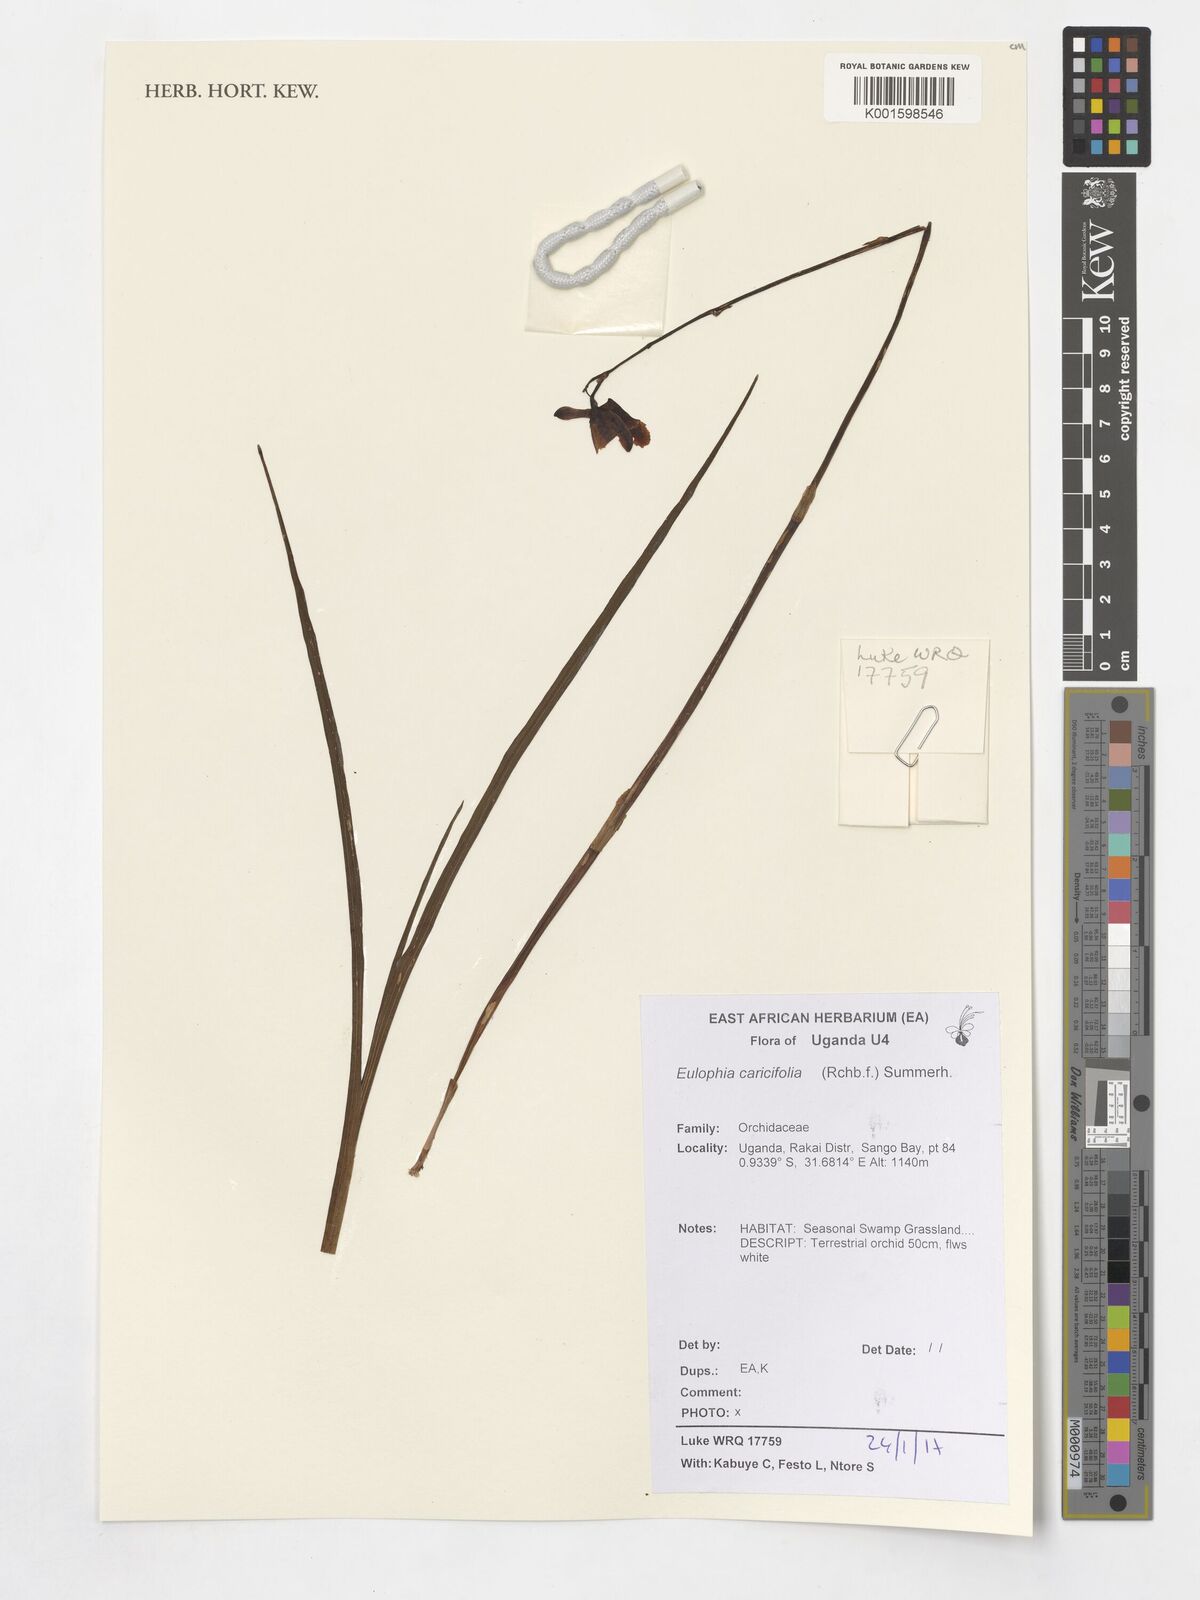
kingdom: Plantae
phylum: Tracheophyta
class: Liliopsida
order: Asparagales
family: Orchidaceae
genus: Eulophia
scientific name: Eulophia caricifolia
